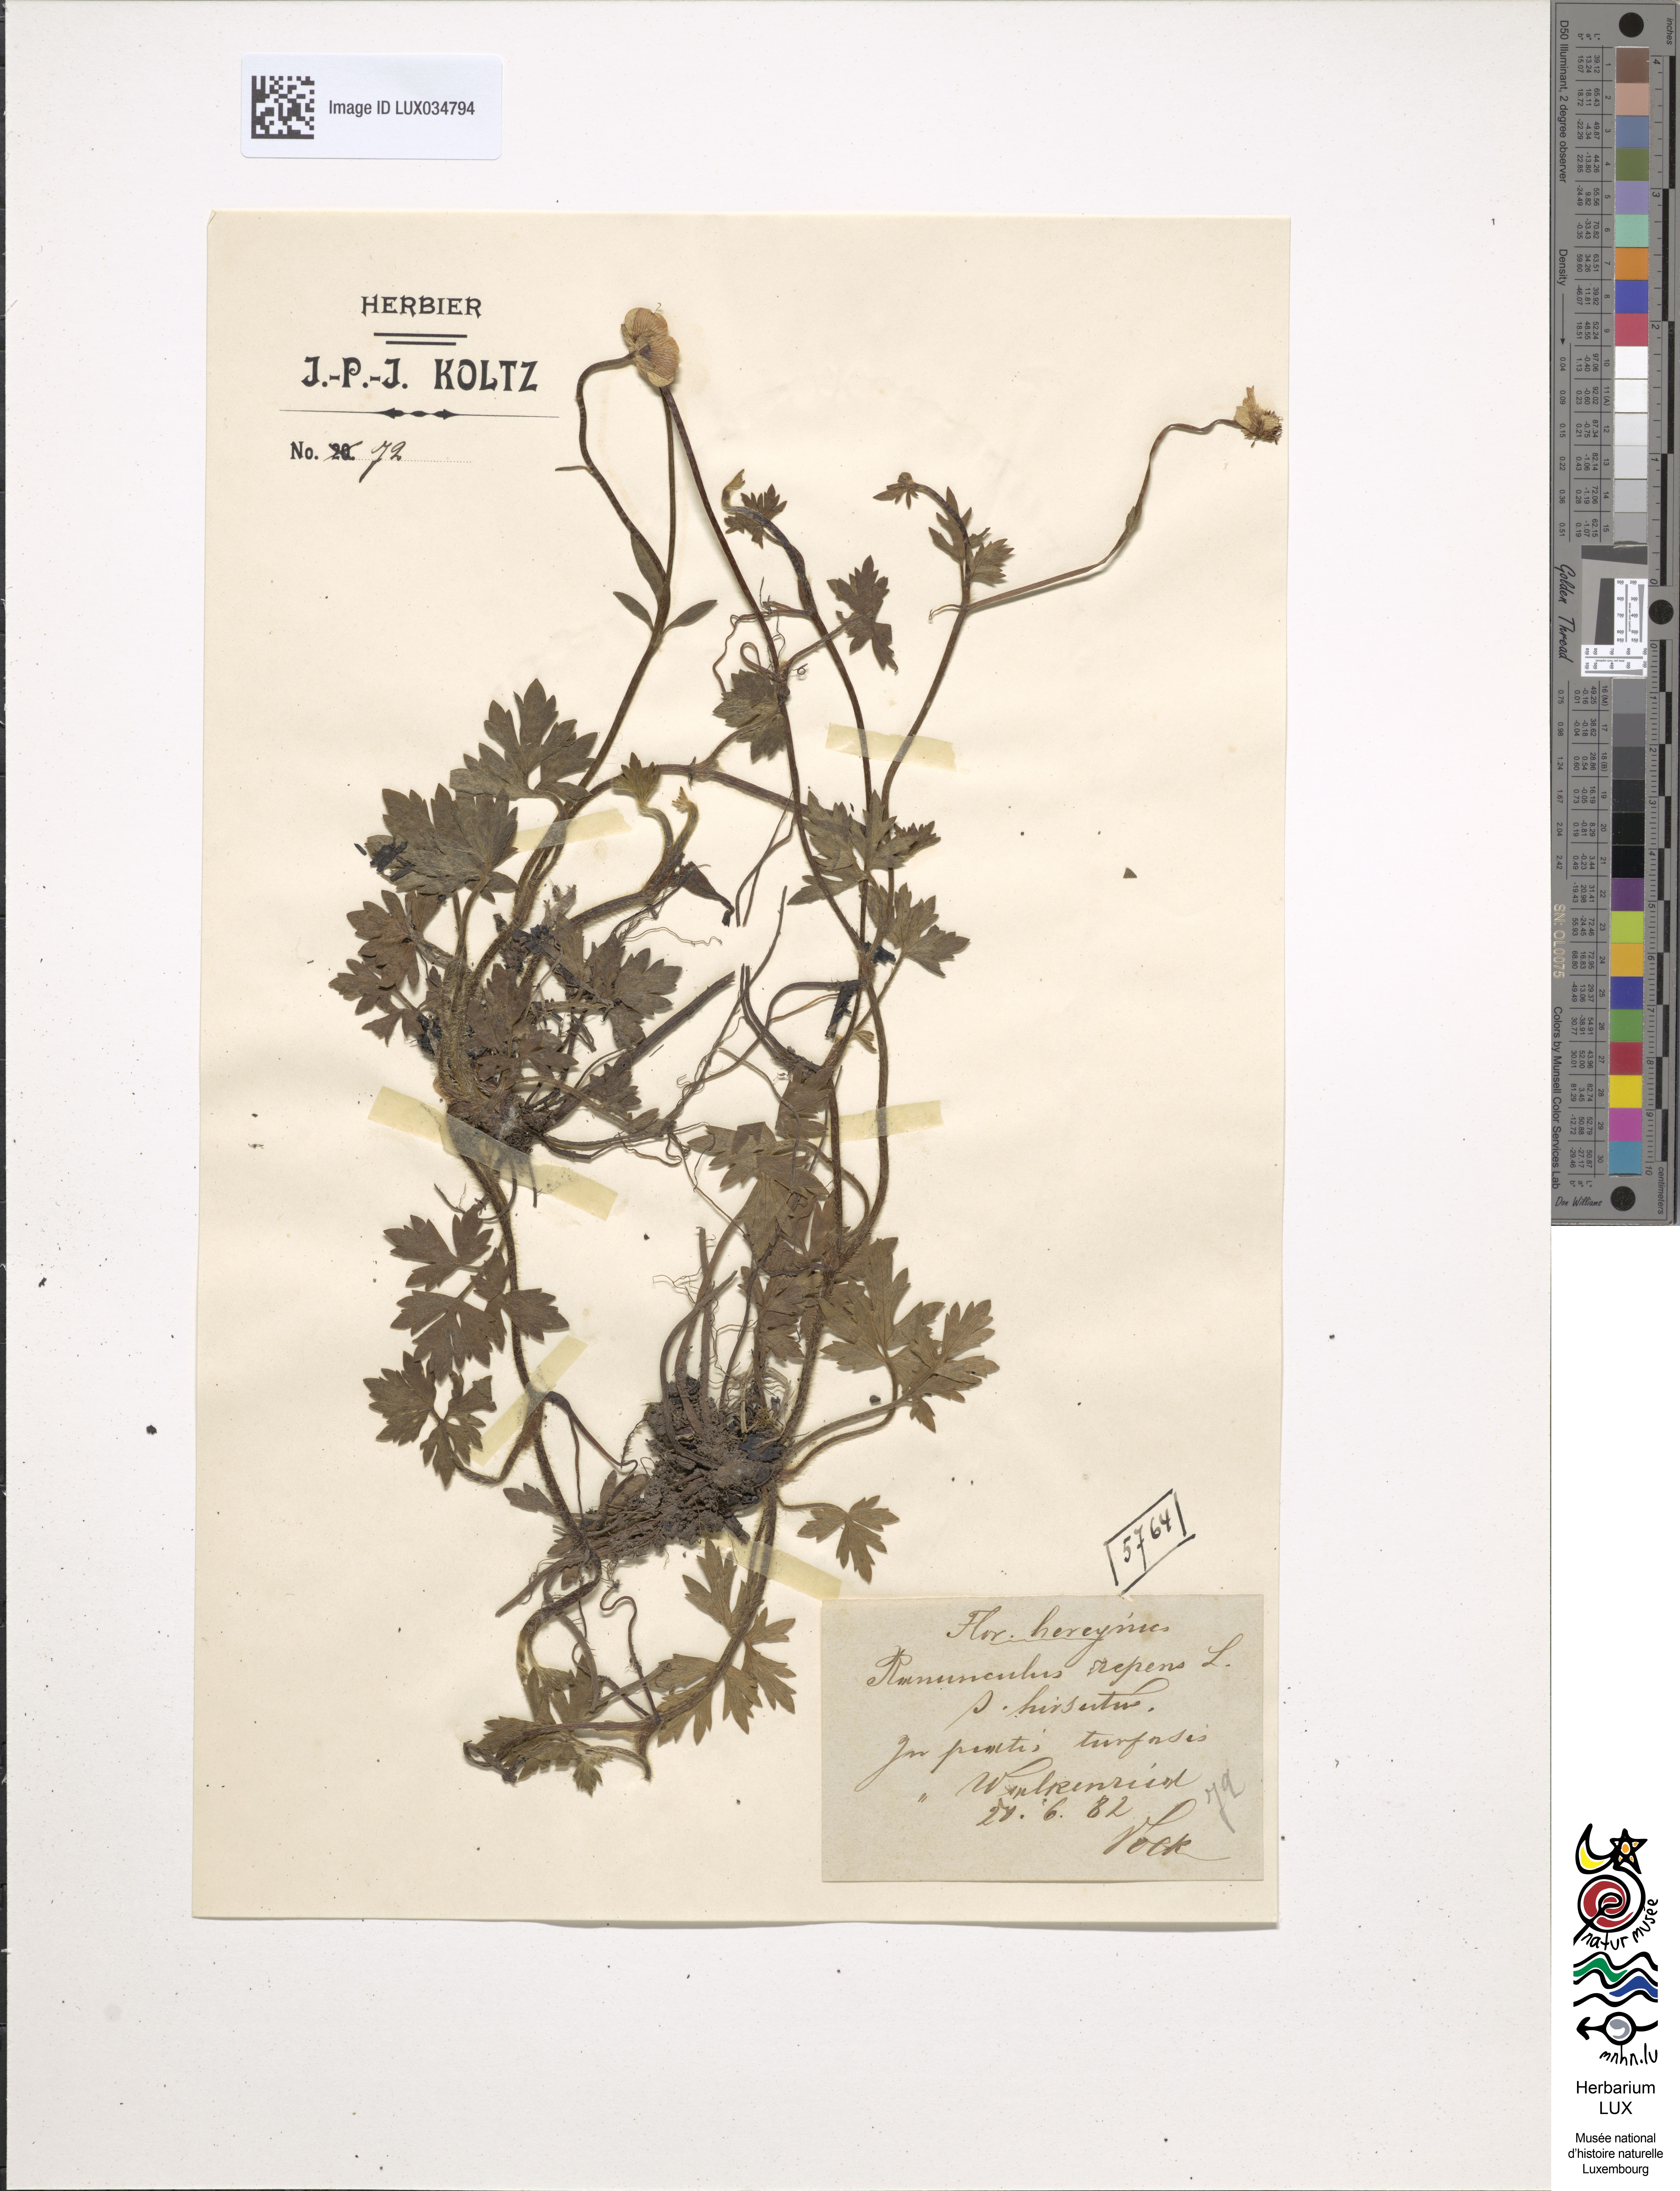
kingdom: Plantae
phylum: Tracheophyta
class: Magnoliopsida
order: Ranunculales
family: Ranunculaceae
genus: Ranunculus
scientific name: Ranunculus repens
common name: Creeping buttercup
